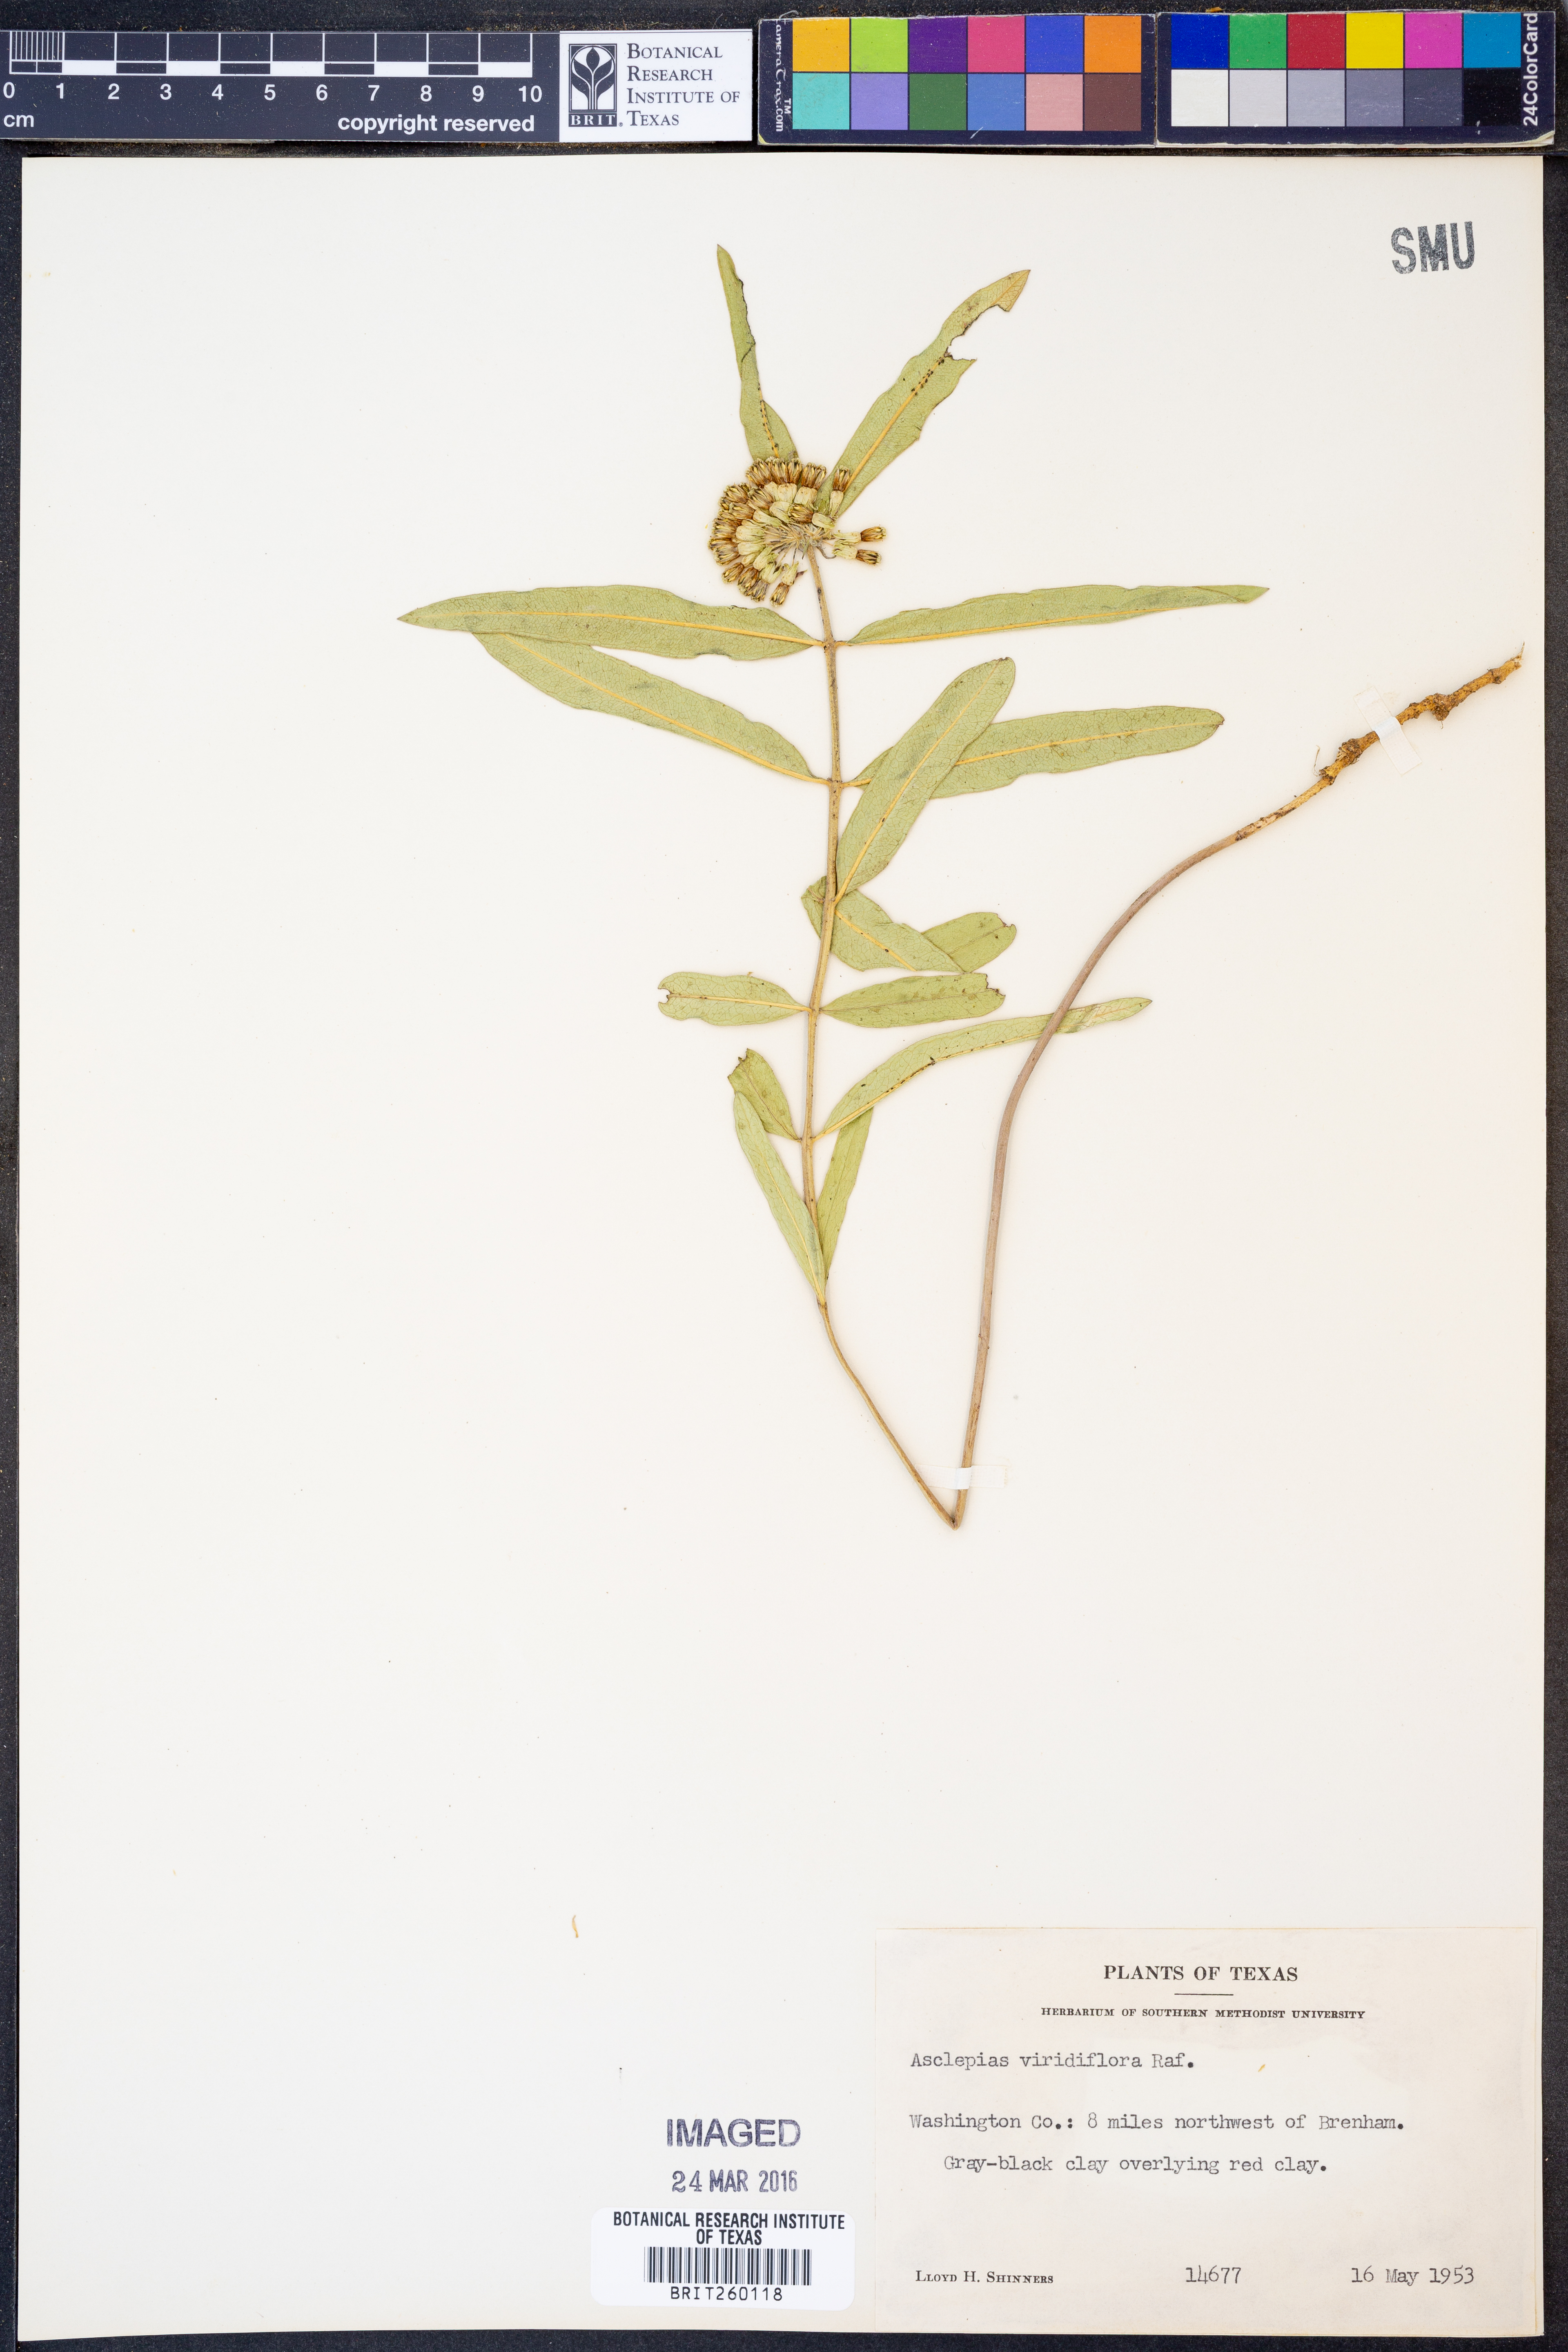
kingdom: Plantae
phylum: Tracheophyta
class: Magnoliopsida
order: Gentianales
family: Apocynaceae
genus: Asclepias
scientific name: Asclepias viridiflora
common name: Green comet milkweed
